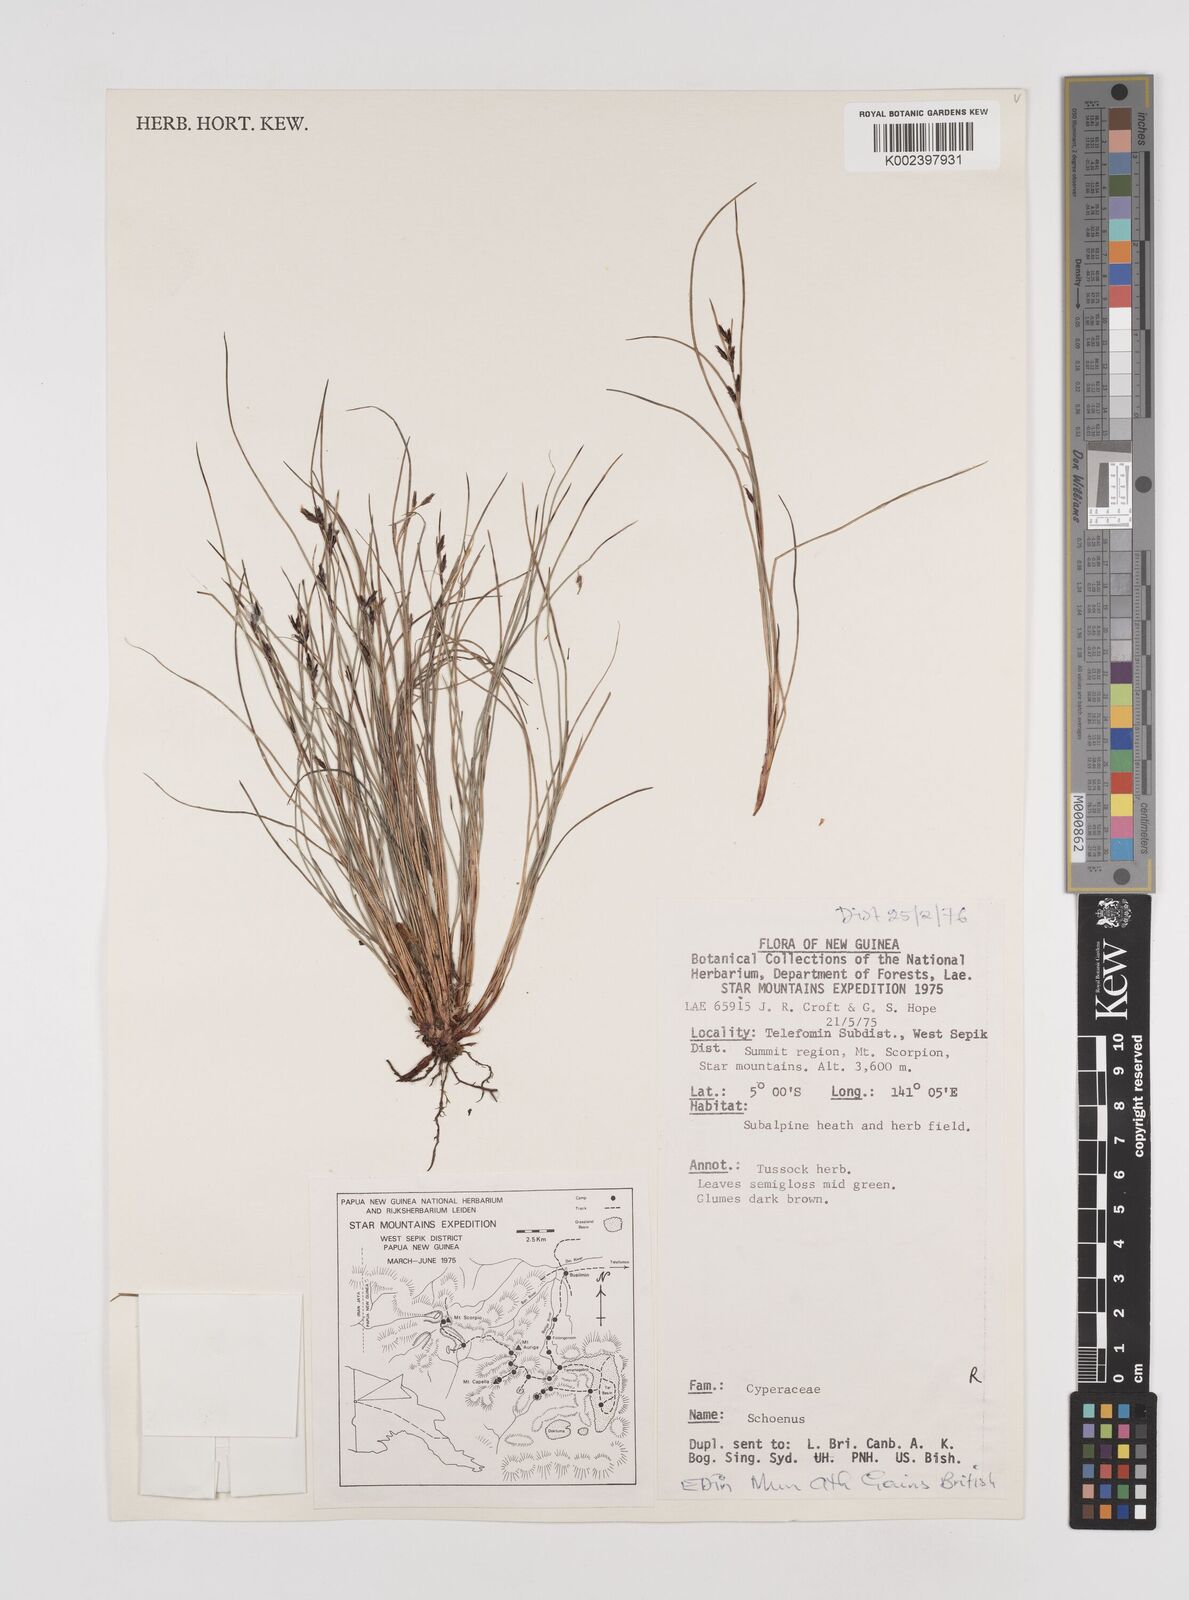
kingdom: Plantae
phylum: Tracheophyta
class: Liliopsida
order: Poales
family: Cyperaceae
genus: Schoenus
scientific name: Schoenus
